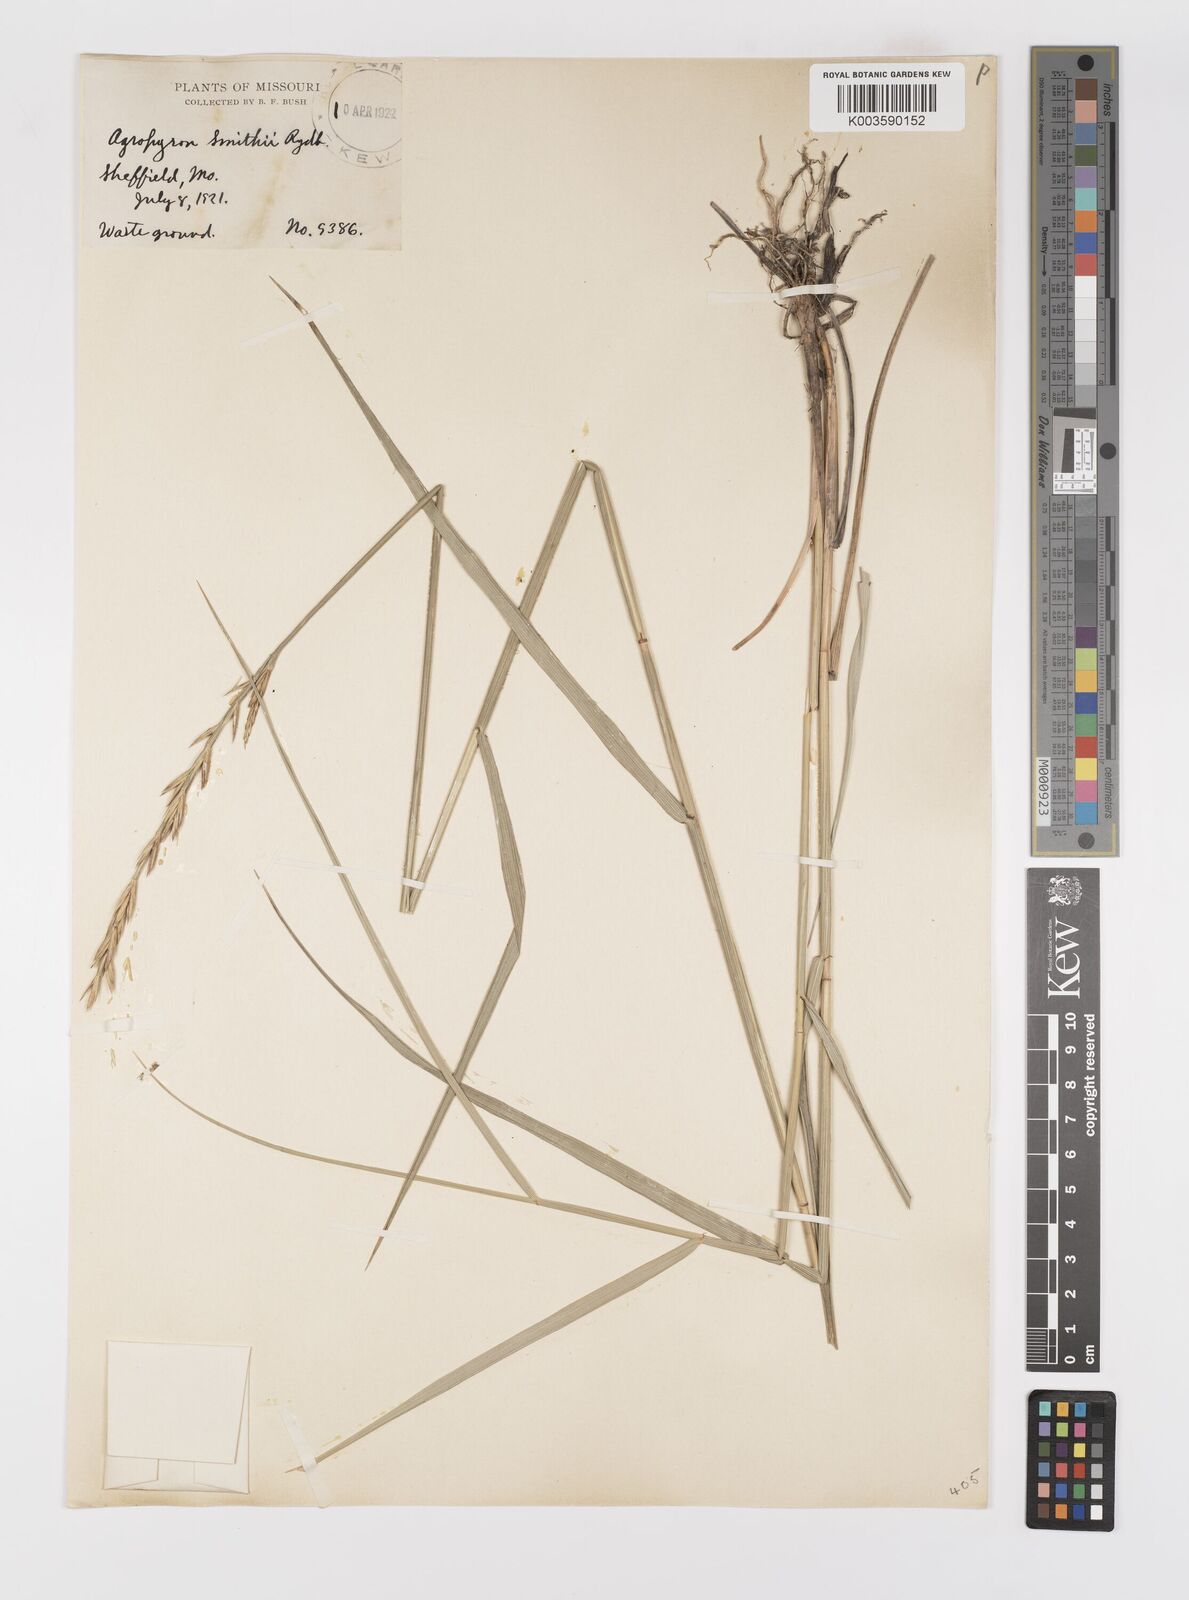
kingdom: Plantae
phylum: Tracheophyta
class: Liliopsida
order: Poales
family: Poaceae
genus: Elymus
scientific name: Elymus smithii
